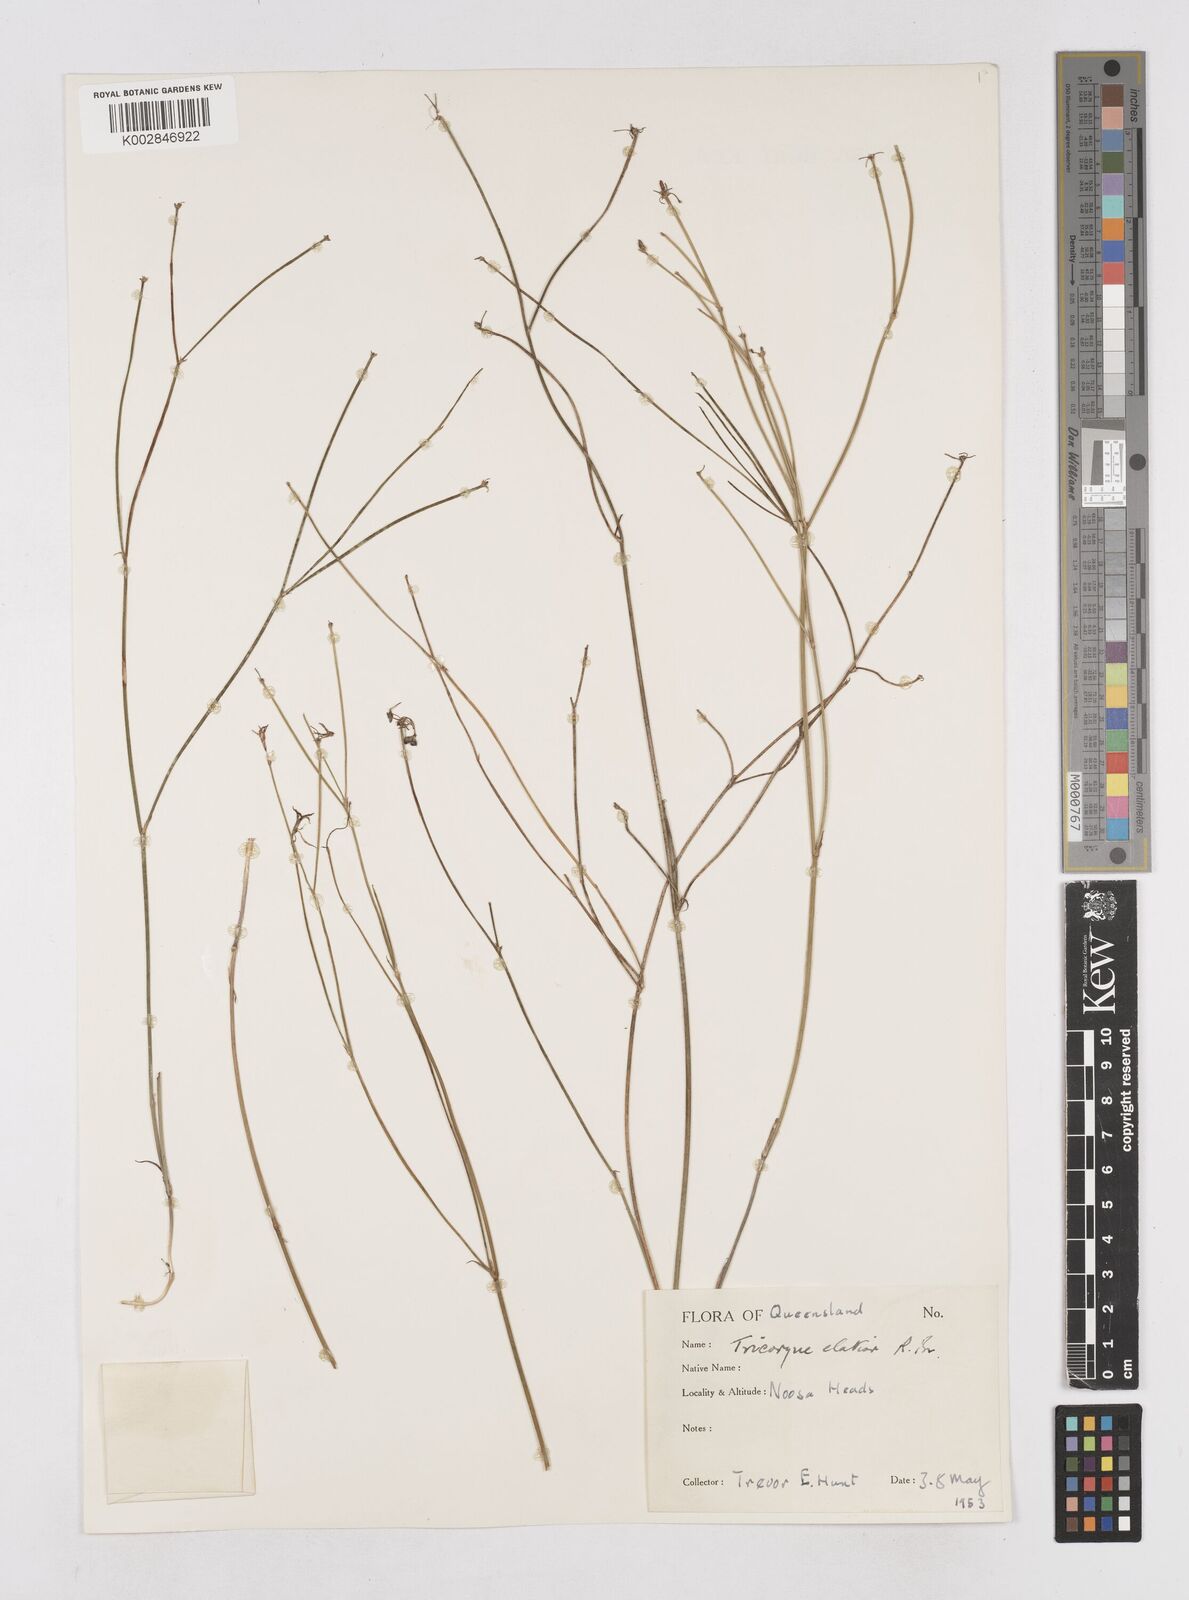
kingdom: Plantae
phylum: Tracheophyta
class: Liliopsida
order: Asparagales
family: Asphodelaceae
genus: Tricoryne
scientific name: Tricoryne elatior
